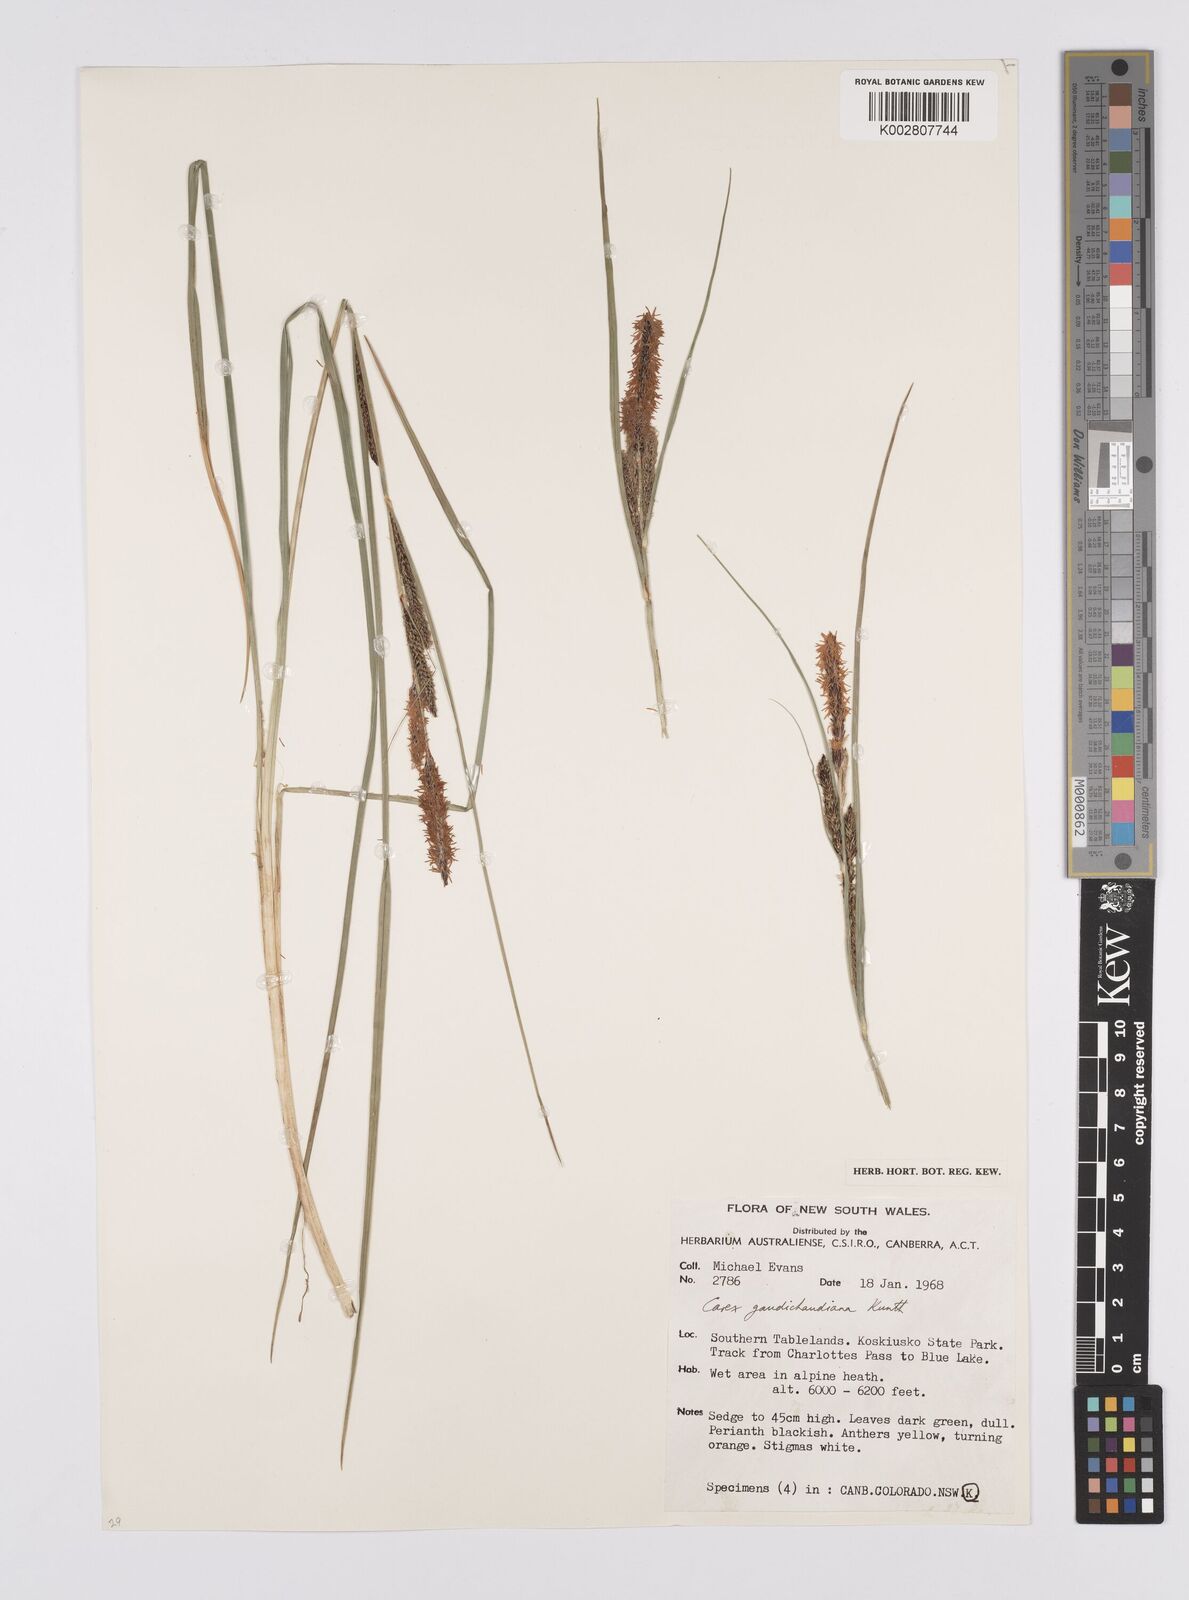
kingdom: Plantae
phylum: Tracheophyta
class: Liliopsida
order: Poales
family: Cyperaceae
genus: Carex
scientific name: Carex gaudichaudiana
